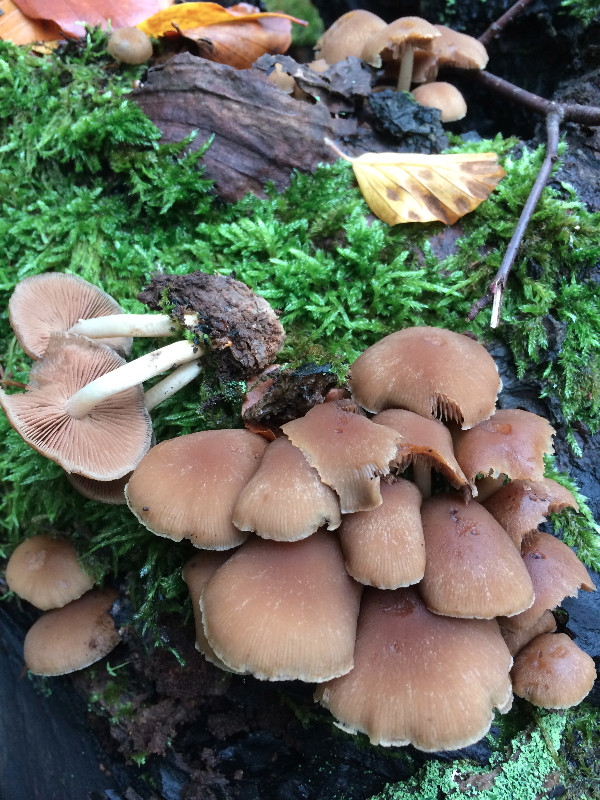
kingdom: Fungi
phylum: Basidiomycota
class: Agaricomycetes
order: Agaricales
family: Psathyrellaceae
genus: Psathyrella
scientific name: Psathyrella piluliformis
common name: lysstokket mørkhat
